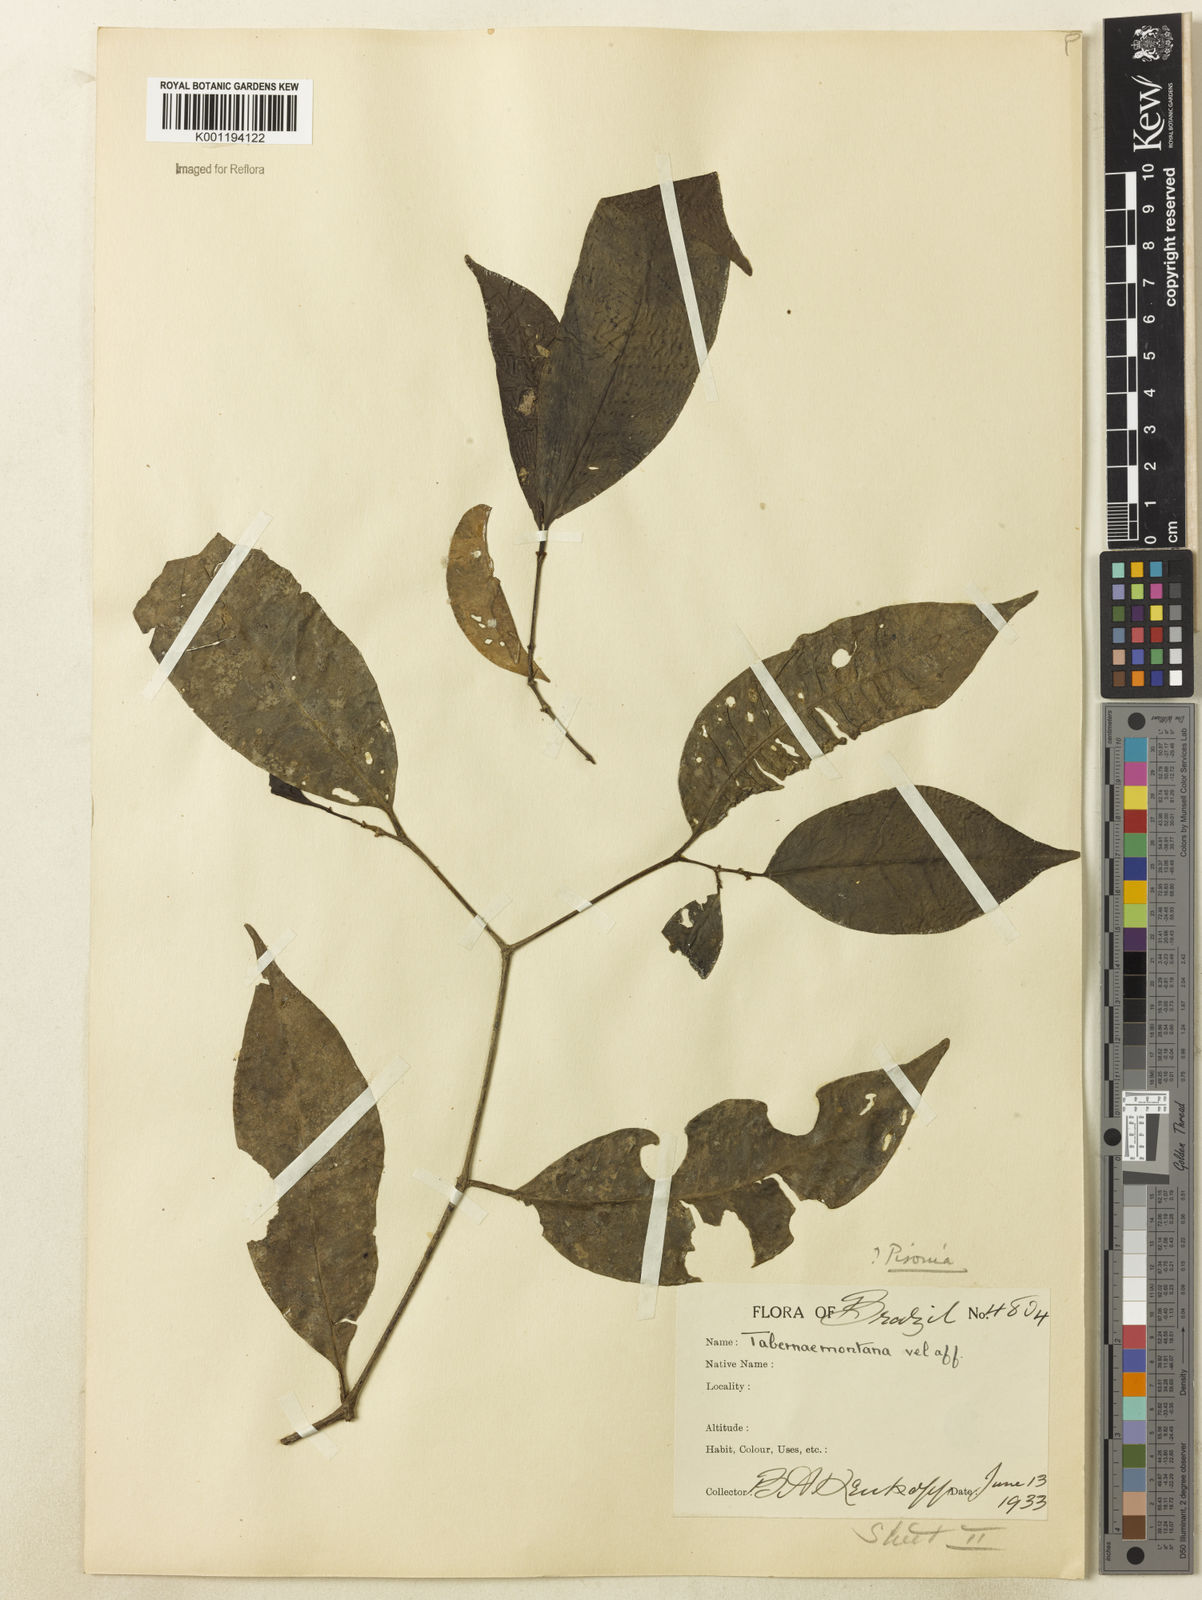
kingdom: Plantae
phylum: Tracheophyta
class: Magnoliopsida
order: Caryophyllales
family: Nyctaginaceae
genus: Guapira
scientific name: Guapira
